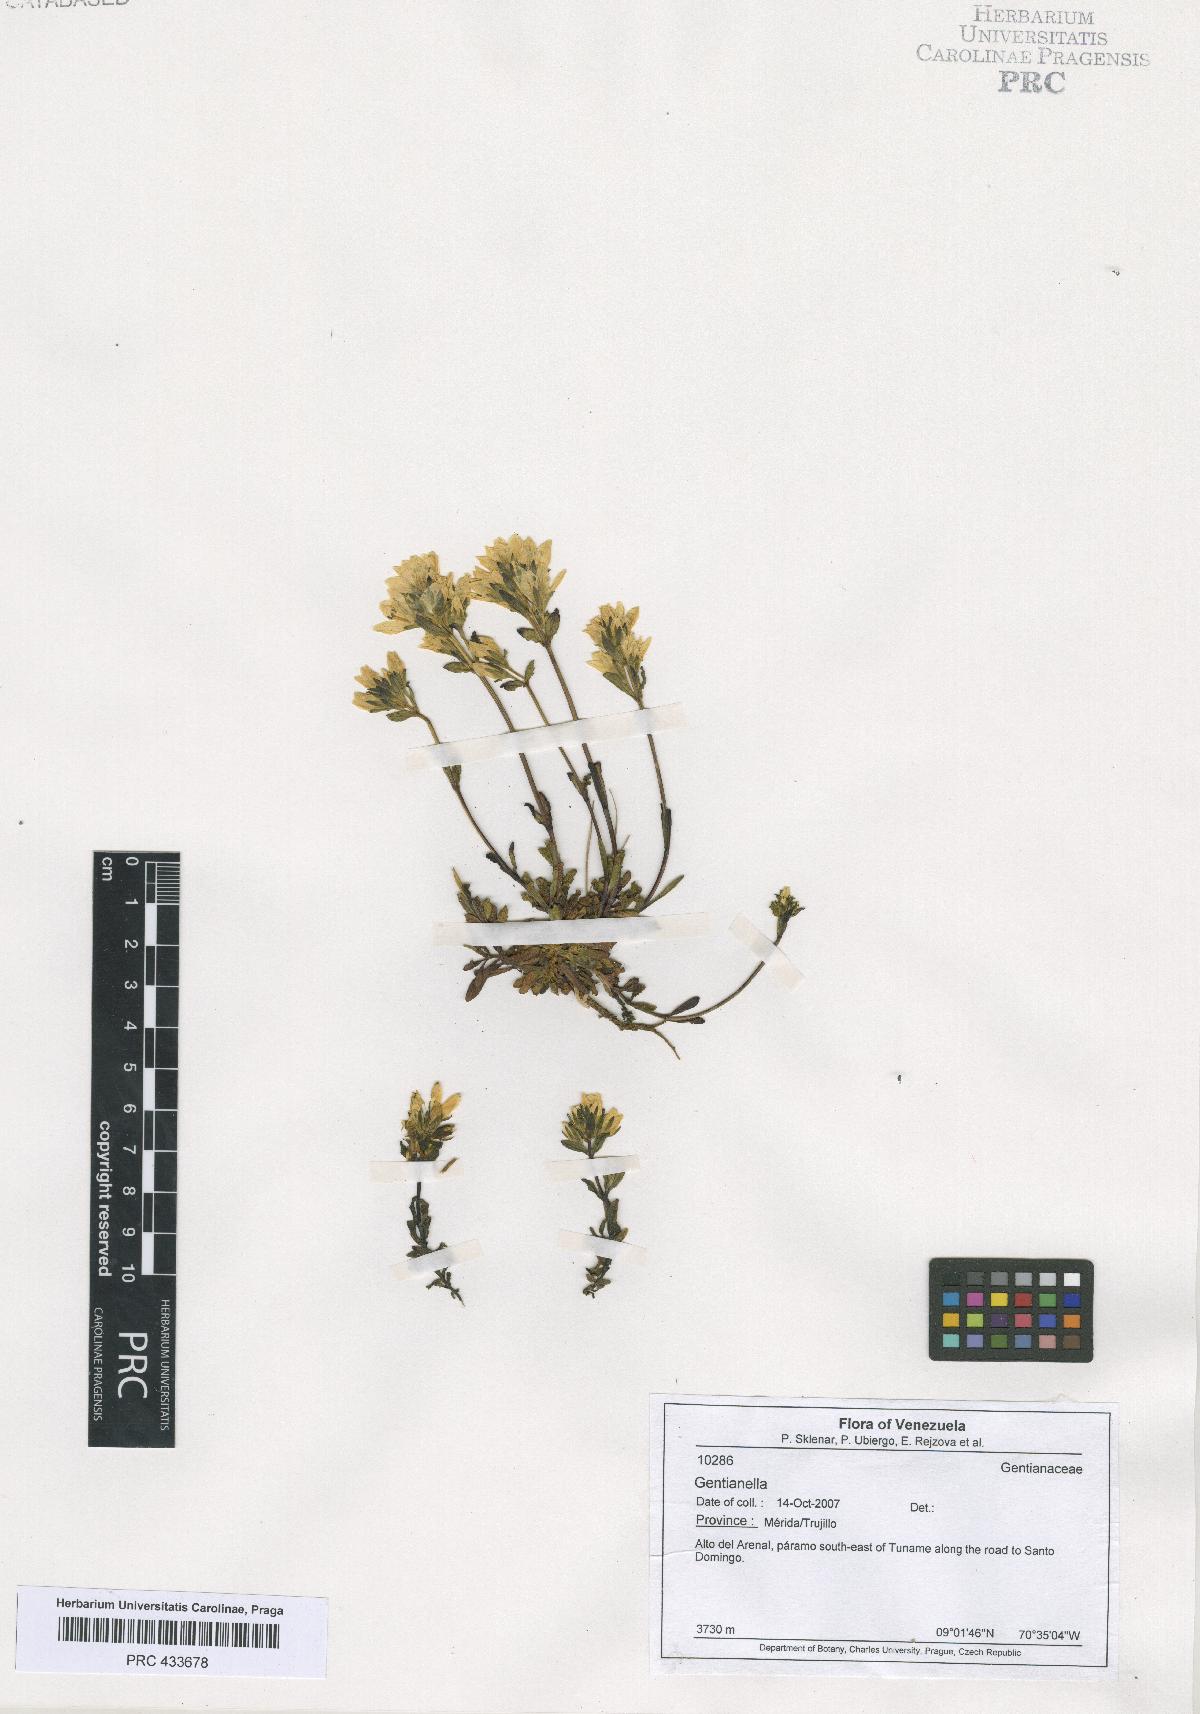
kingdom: Plantae
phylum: Tracheophyta
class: Magnoliopsida
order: Gentianales
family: Gentianaceae
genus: Gentianella
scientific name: Gentianella
